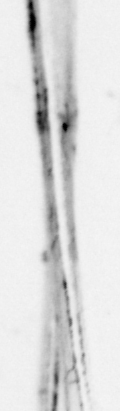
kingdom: Animalia
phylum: Chordata
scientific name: Chordata
